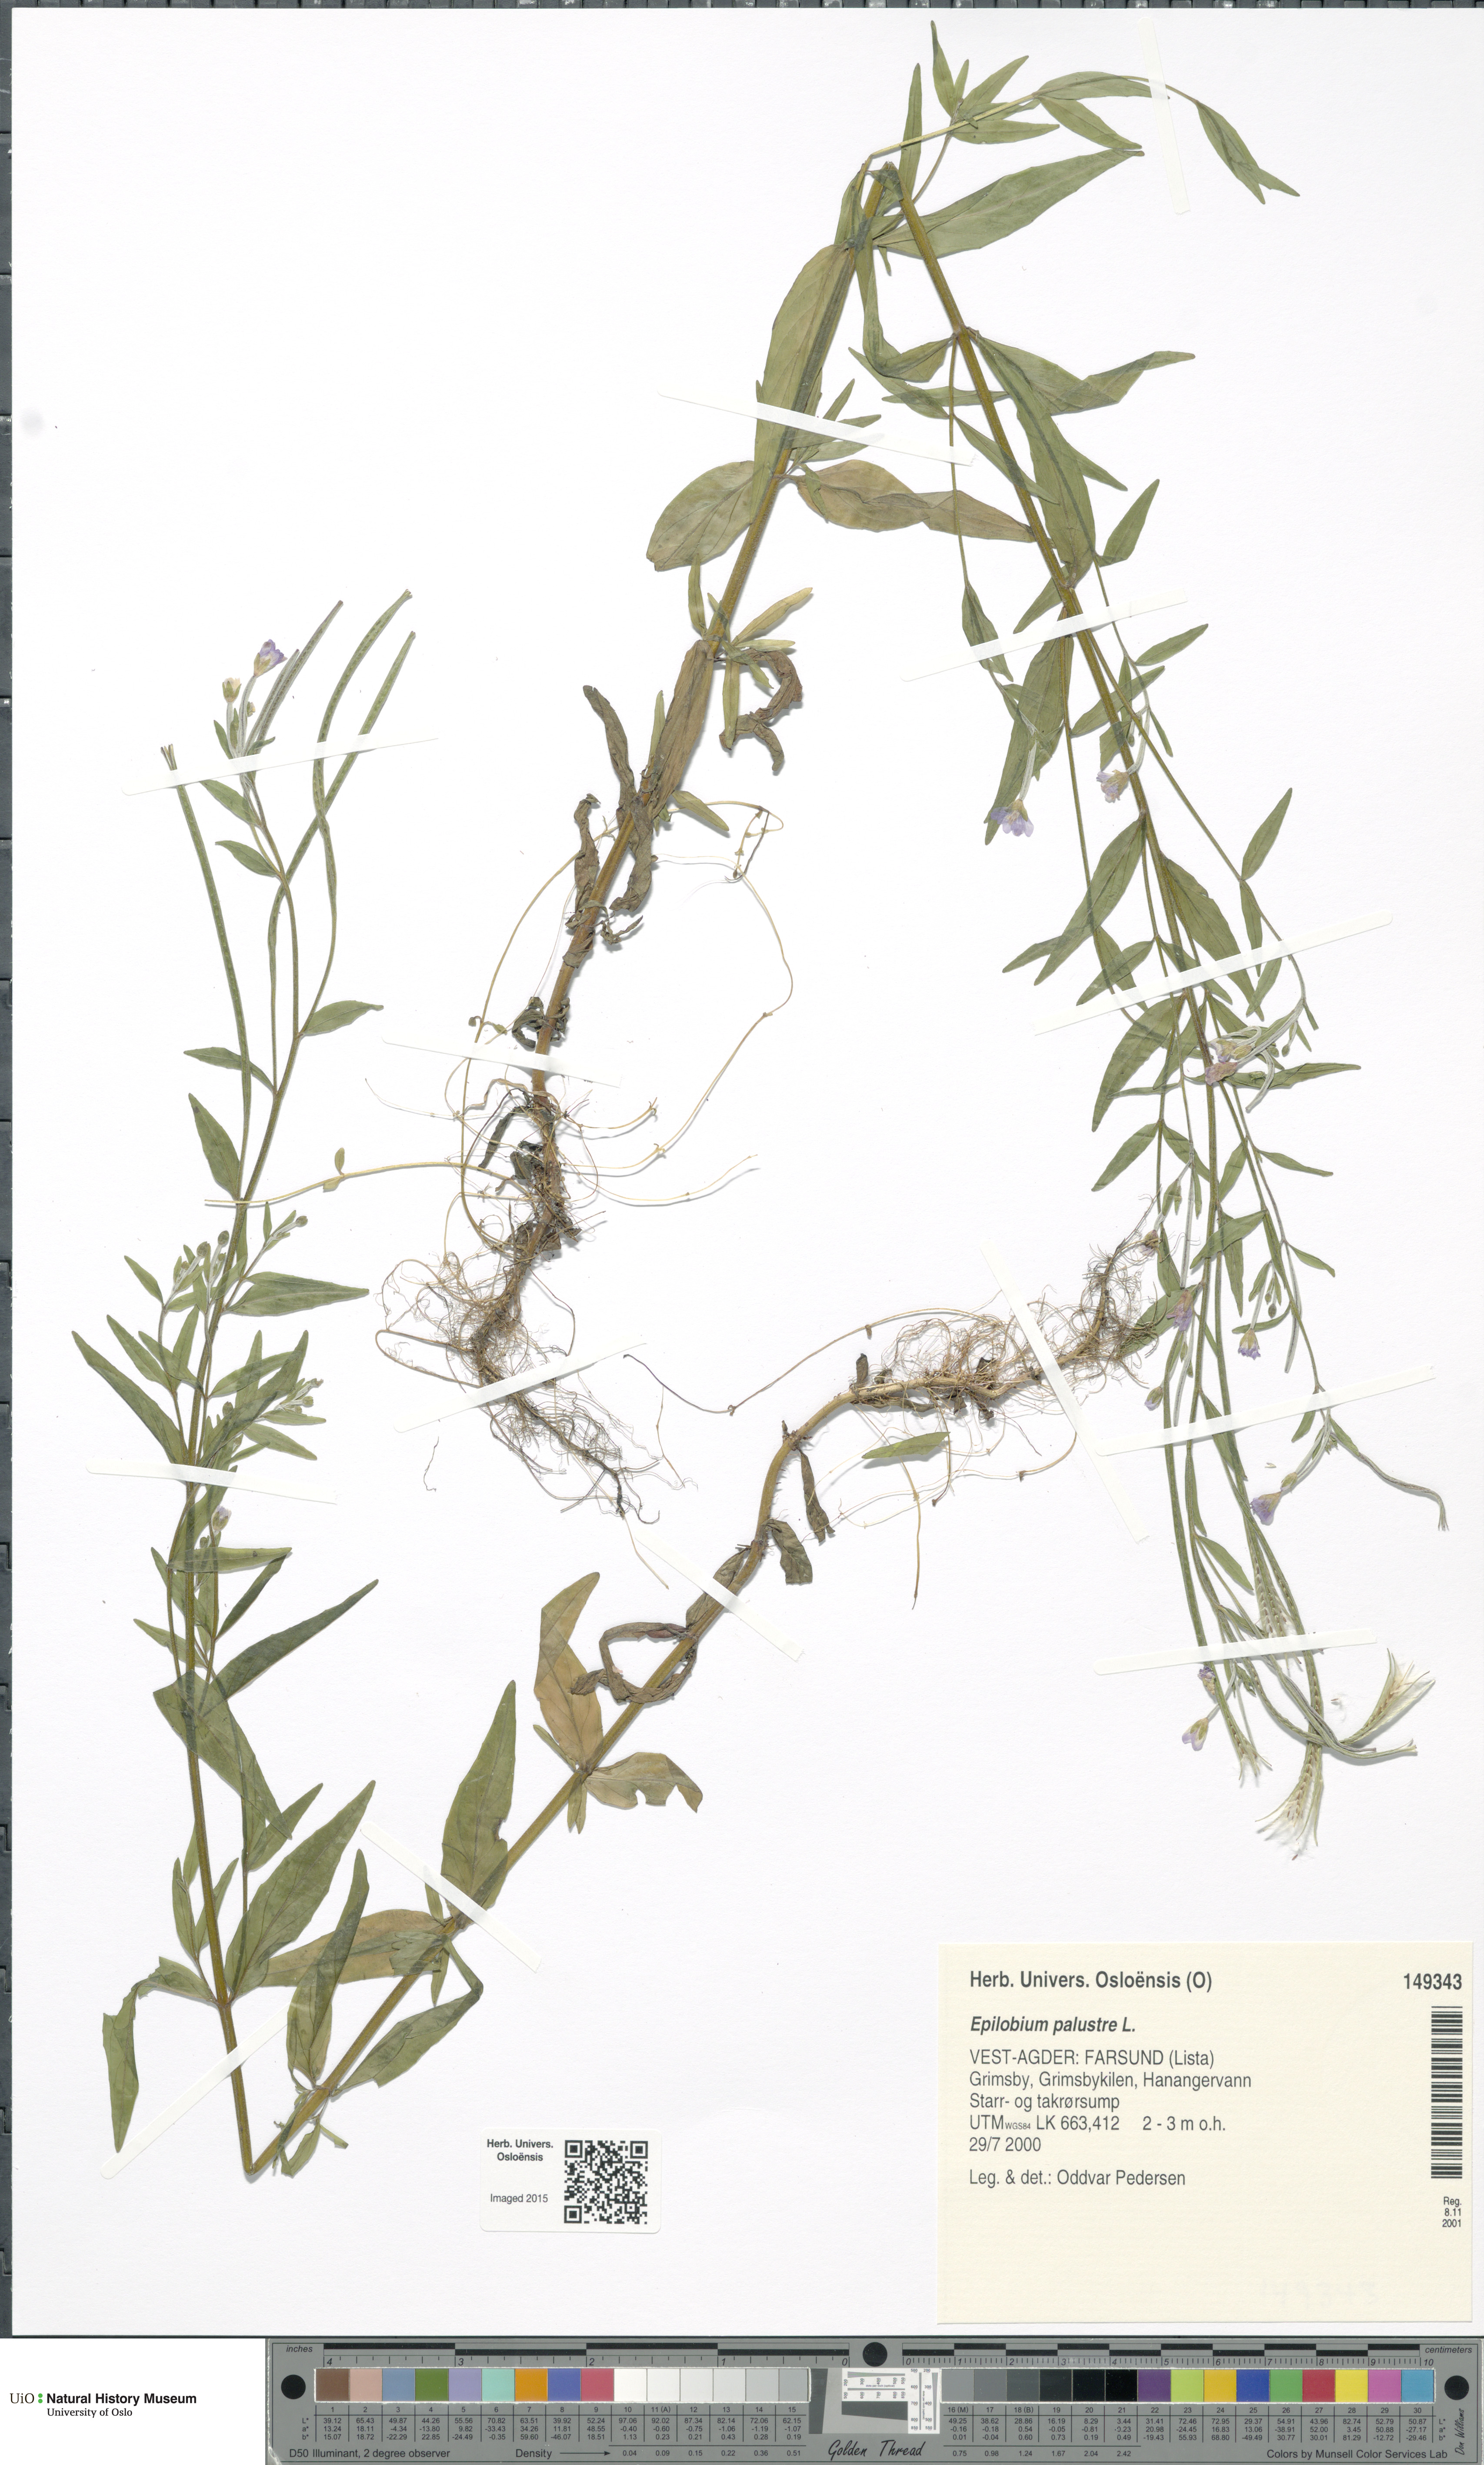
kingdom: Plantae
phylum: Tracheophyta
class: Magnoliopsida
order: Myrtales
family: Onagraceae
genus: Epilobium
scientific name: Epilobium palustre
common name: Marsh willowherb
